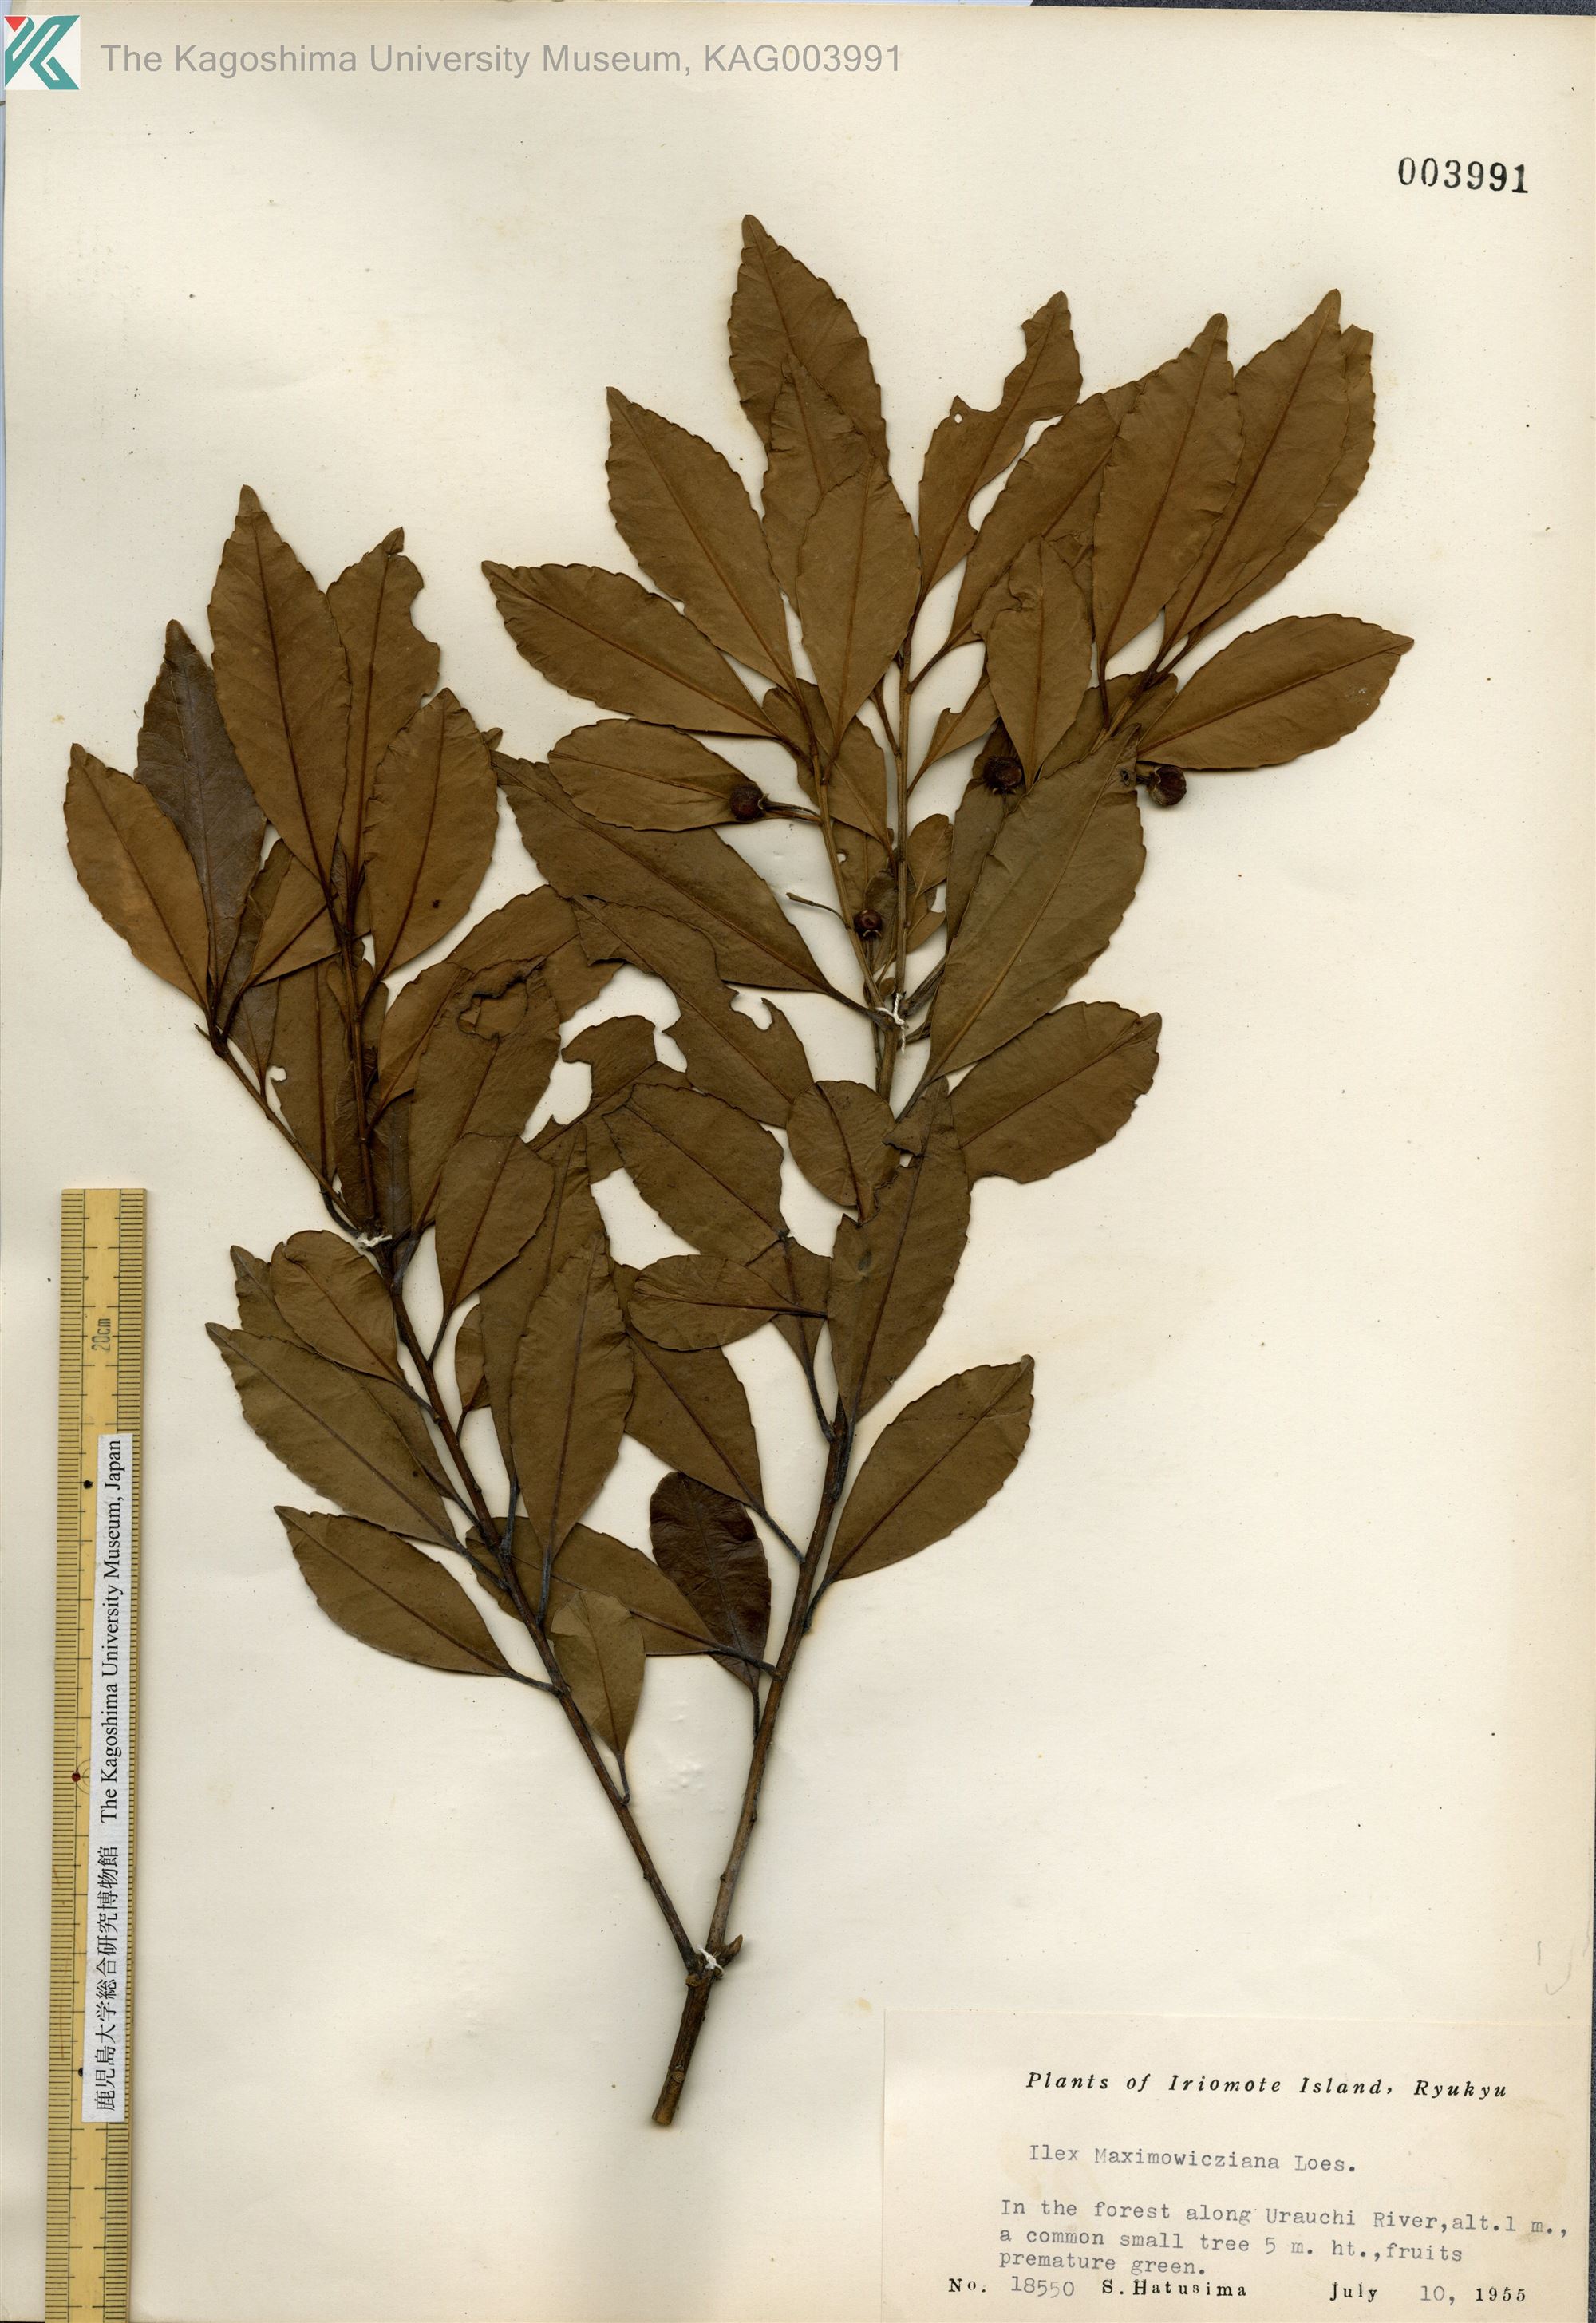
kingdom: Plantae
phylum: Tracheophyta
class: Magnoliopsida
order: Aquifoliales
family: Aquifoliaceae
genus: Ilex
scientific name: Ilex maximowicziana
